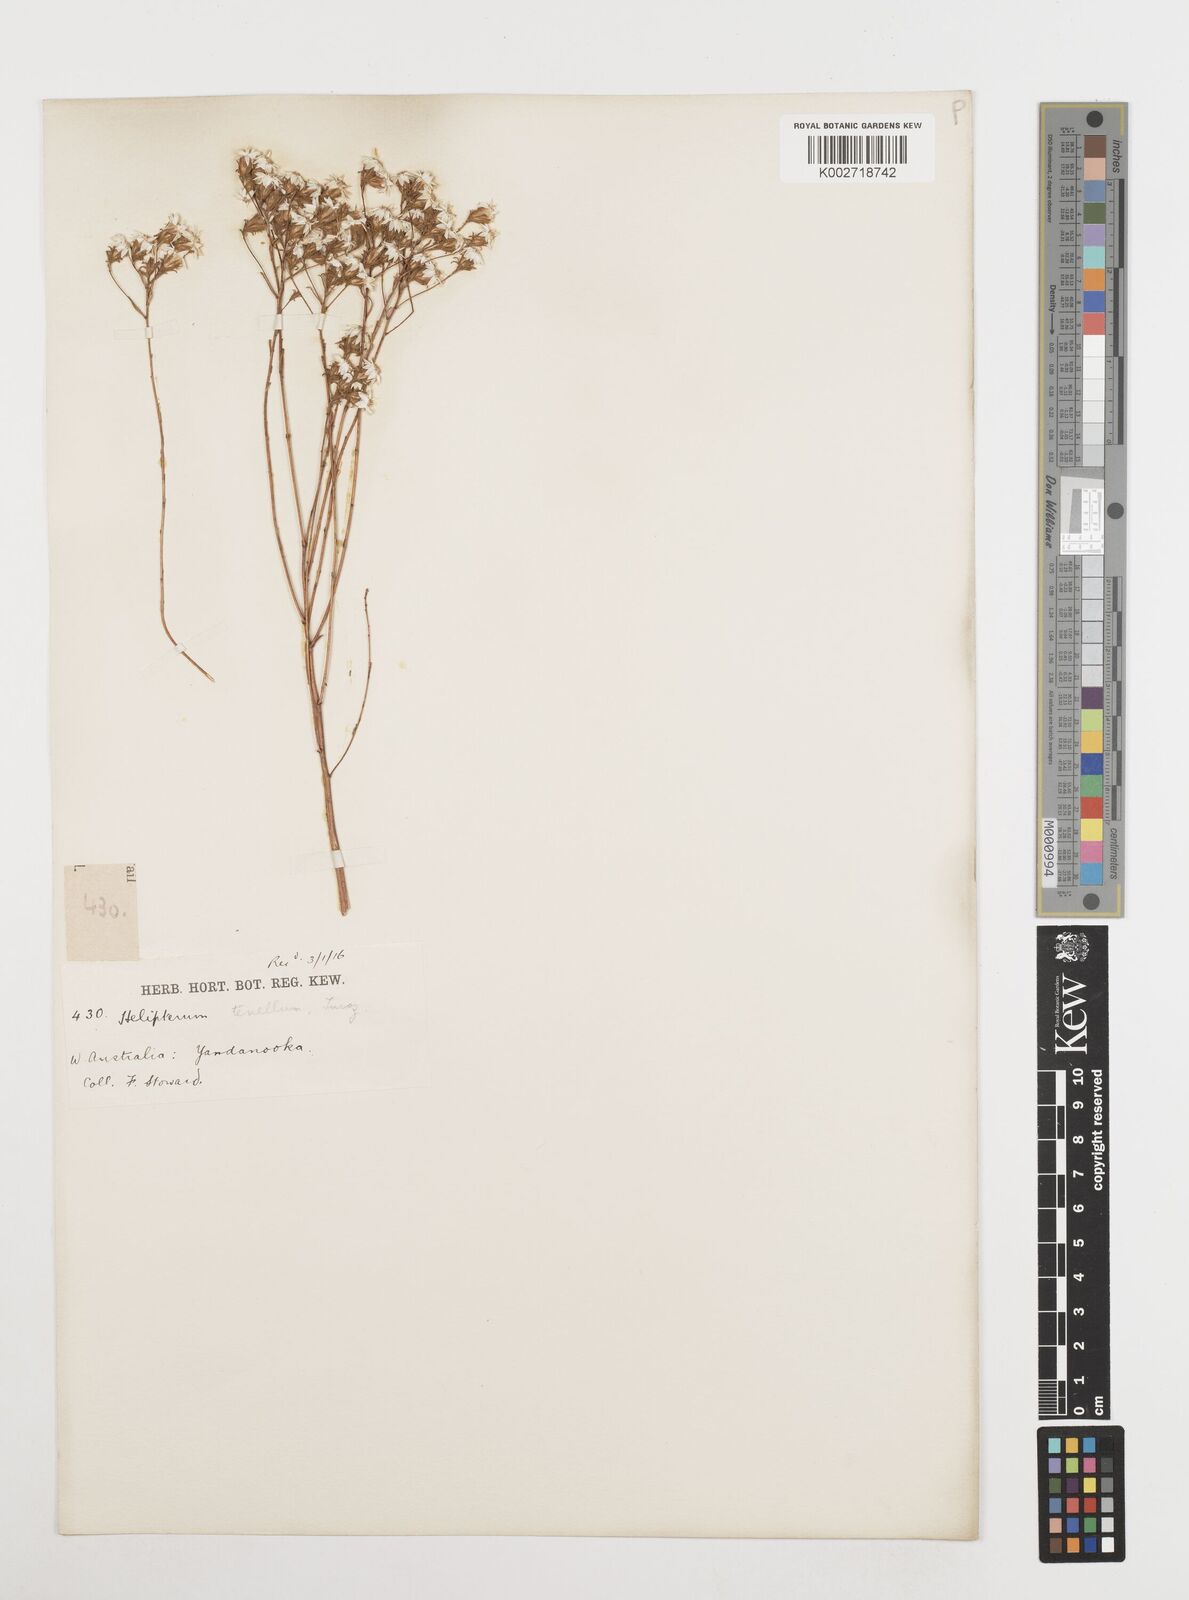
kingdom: Plantae
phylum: Tracheophyta
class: Magnoliopsida
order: Asterales
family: Asteraceae
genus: Erymophyllum
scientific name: Erymophyllum tenellum
